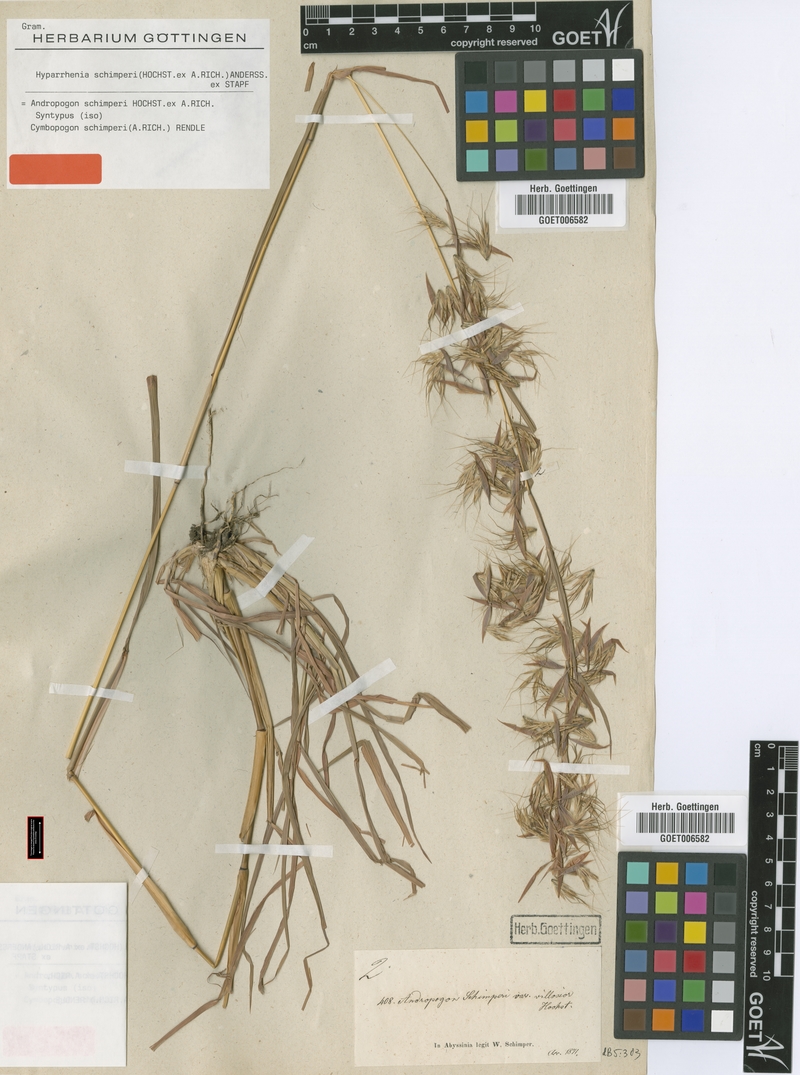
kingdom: Plantae
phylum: Tracheophyta
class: Liliopsida
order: Poales
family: Poaceae
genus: Hyparrhenia
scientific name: Hyparrhenia schimperi
